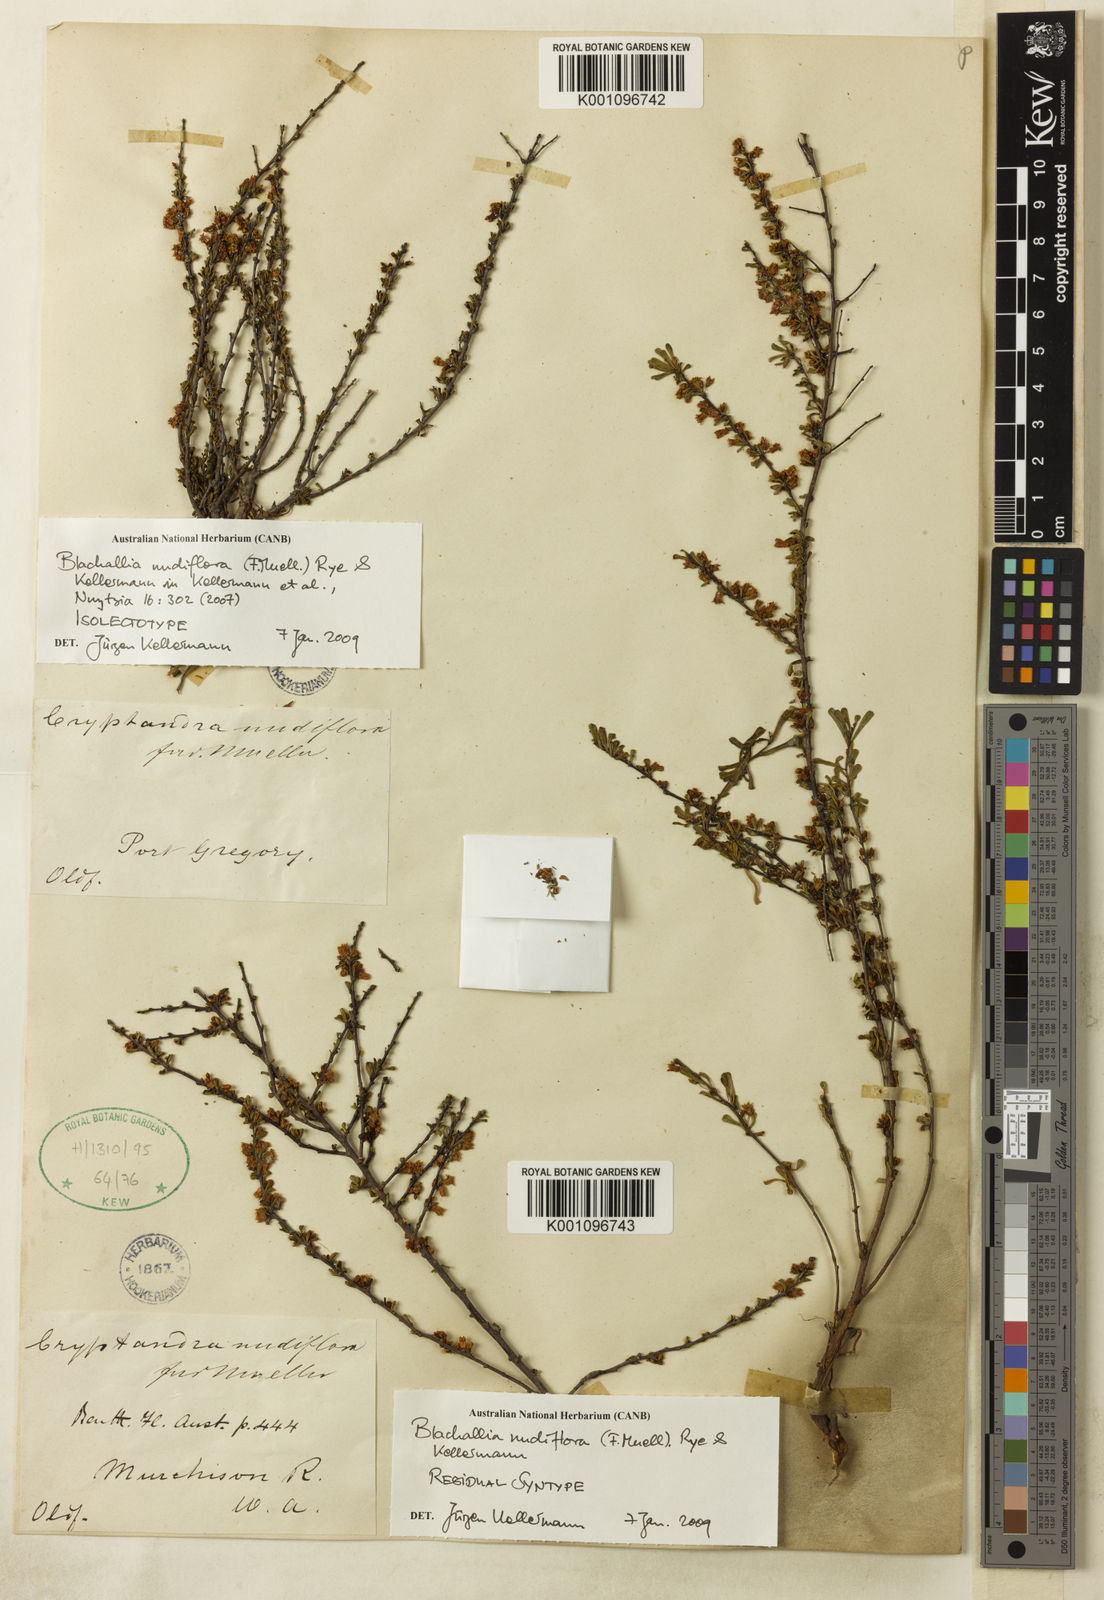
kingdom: Plantae
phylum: Tracheophyta
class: Magnoliopsida
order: Rosales
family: Rhamnaceae
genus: Blackallia
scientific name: Blackallia nudiflora
